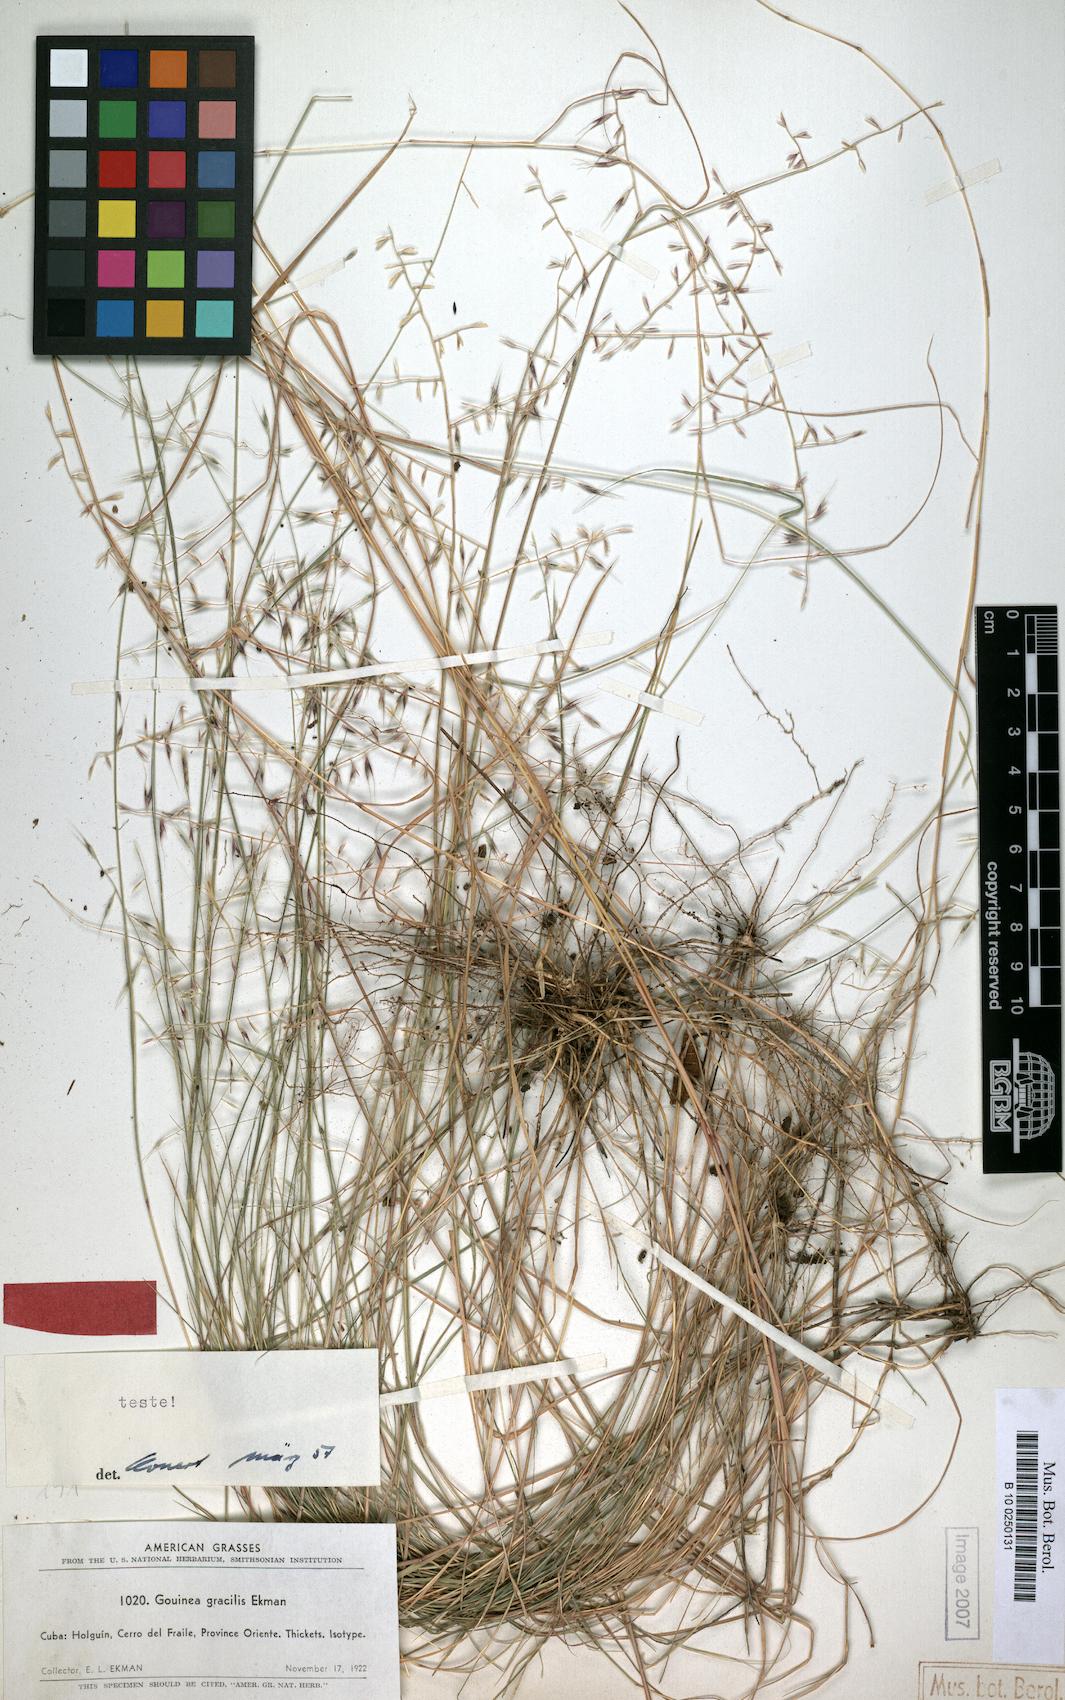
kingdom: Plantae
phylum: Tracheophyta
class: Liliopsida
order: Poales
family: Poaceae
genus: Gouinia
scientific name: Gouinia gracilis
